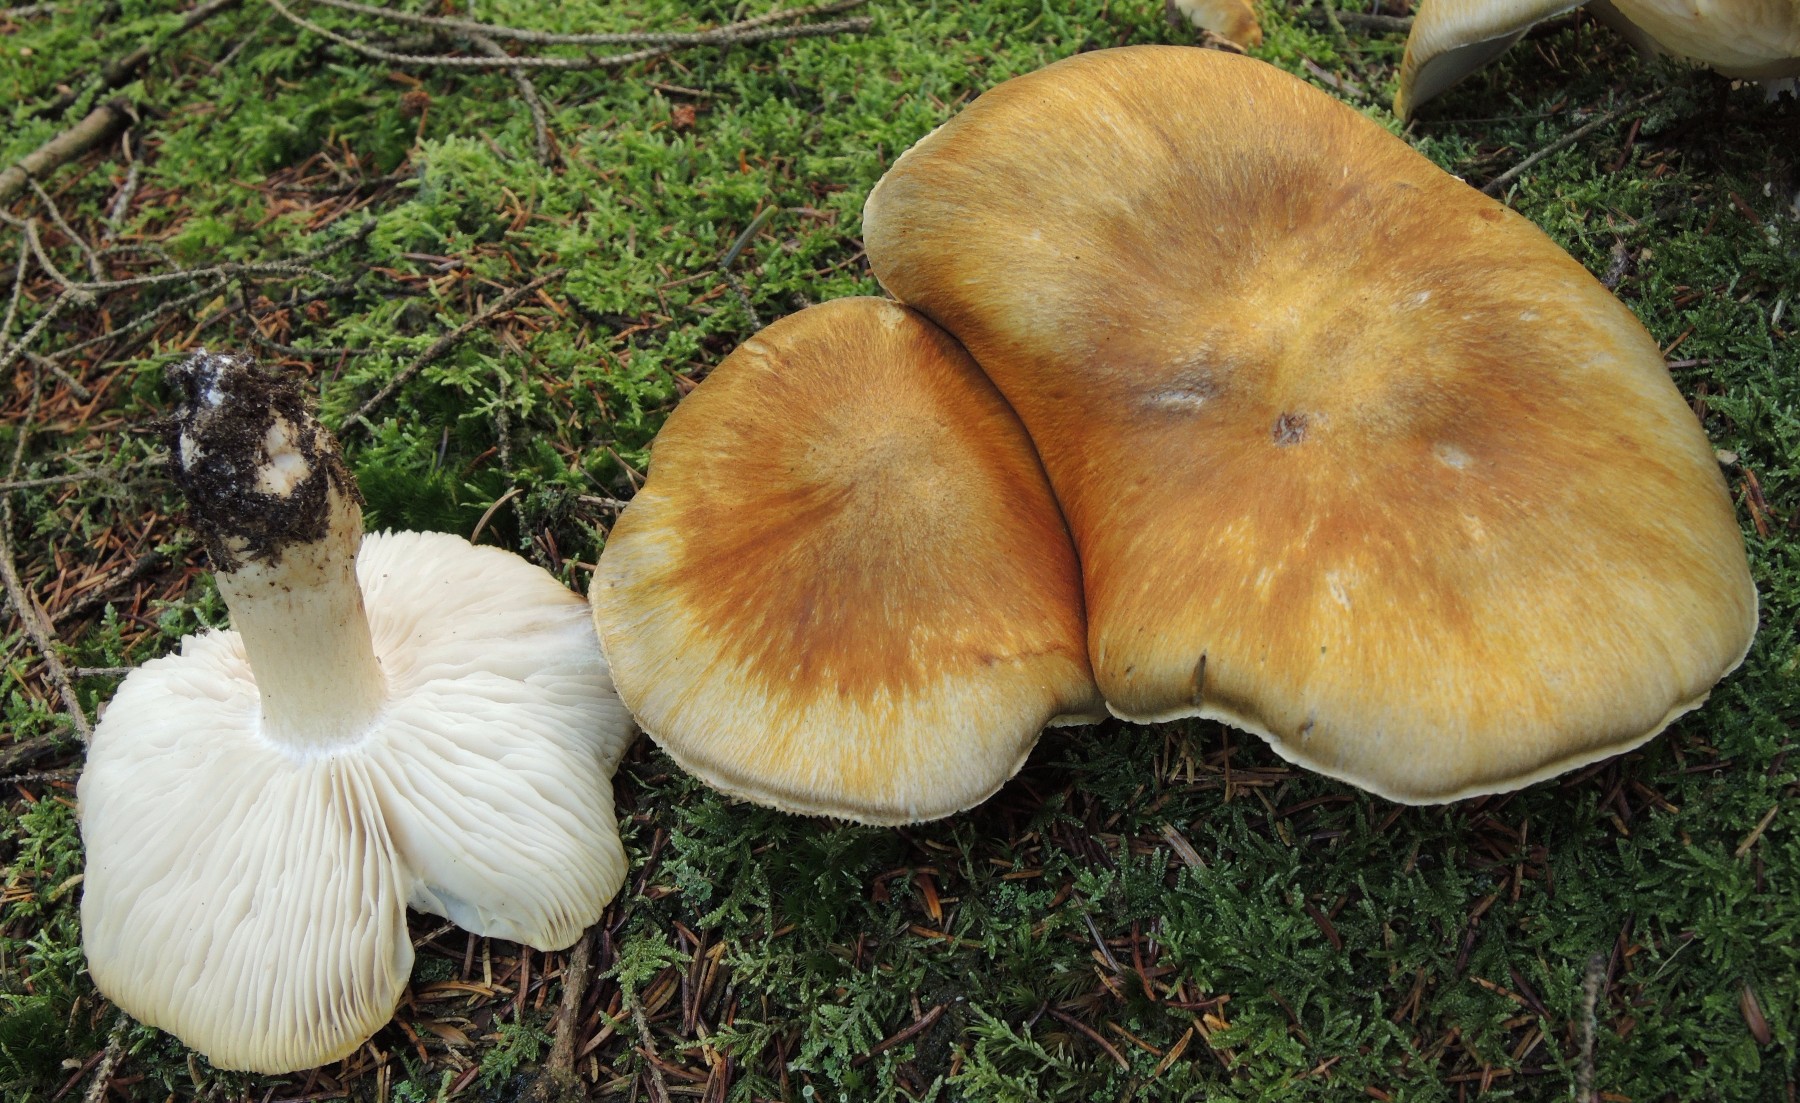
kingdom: Fungi
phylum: Basidiomycota
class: Agaricomycetes
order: Agaricales
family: Tricholomataceae
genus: Tricholoma
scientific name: Tricholoma arvernense
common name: kantet ridderhat
